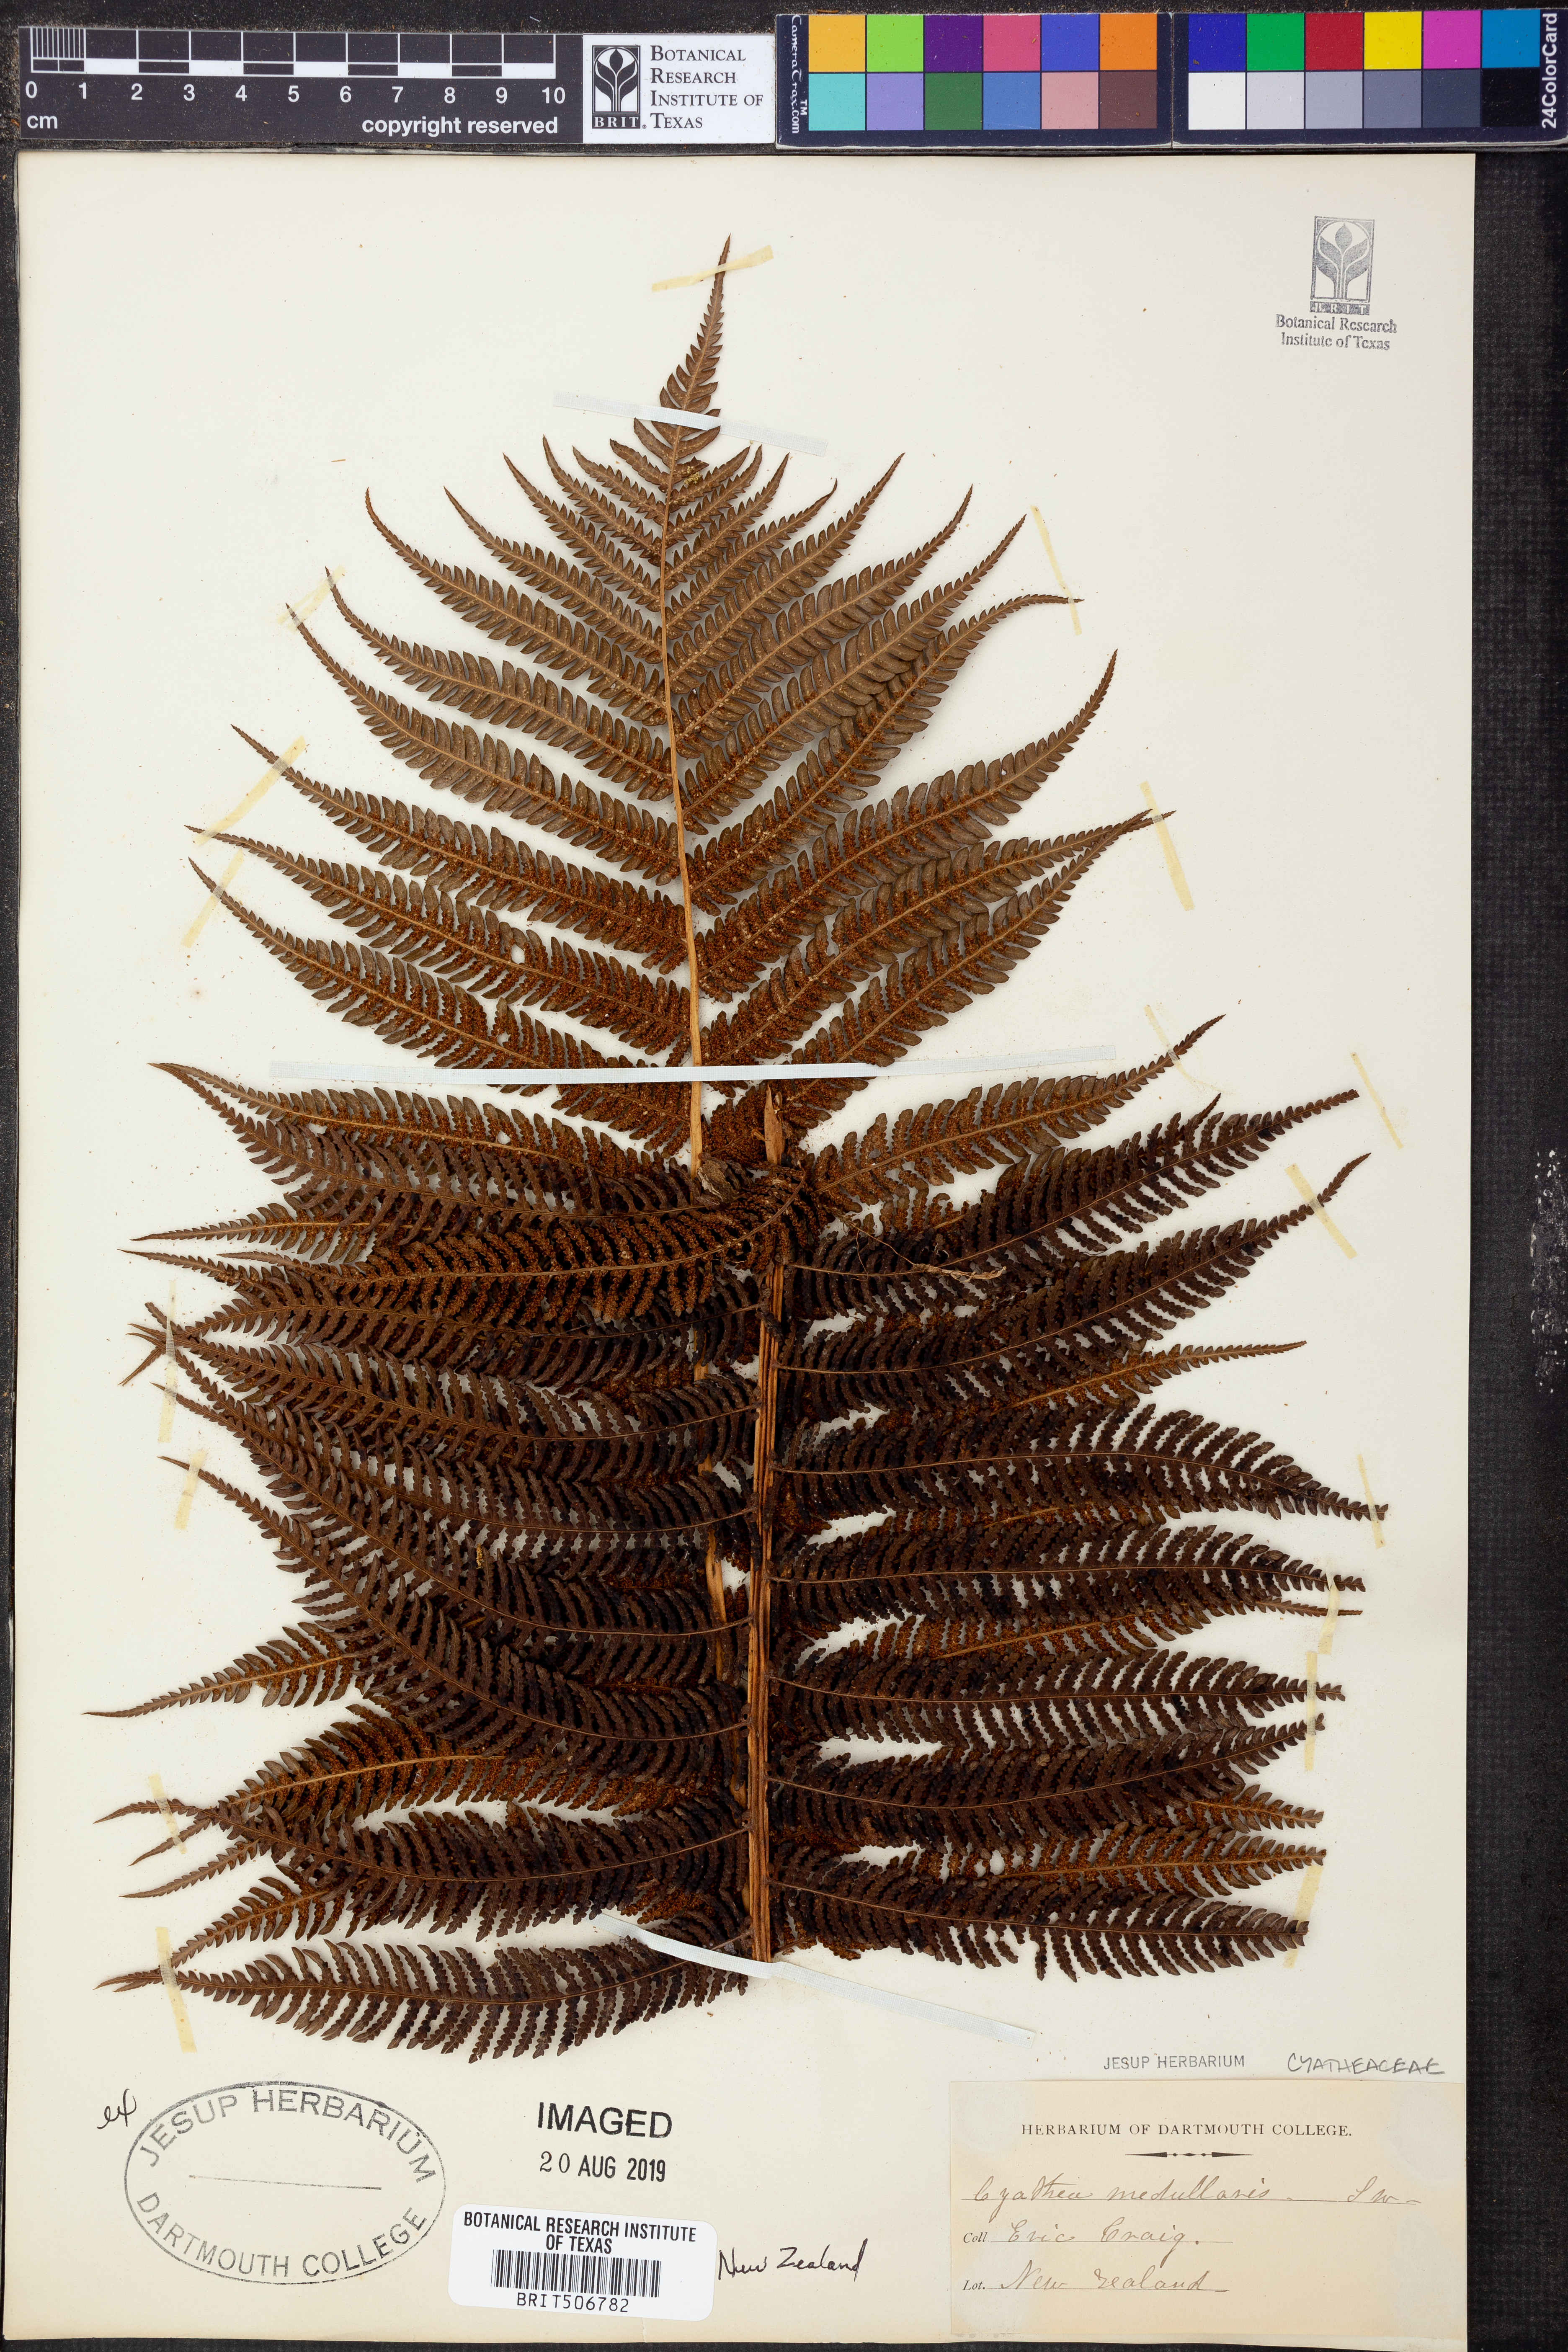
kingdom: Plantae
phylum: Tracheophyta
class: Polypodiopsida
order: Cyatheales
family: Cyatheaceae
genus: Sphaeropteris
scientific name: Sphaeropteris medullaris
